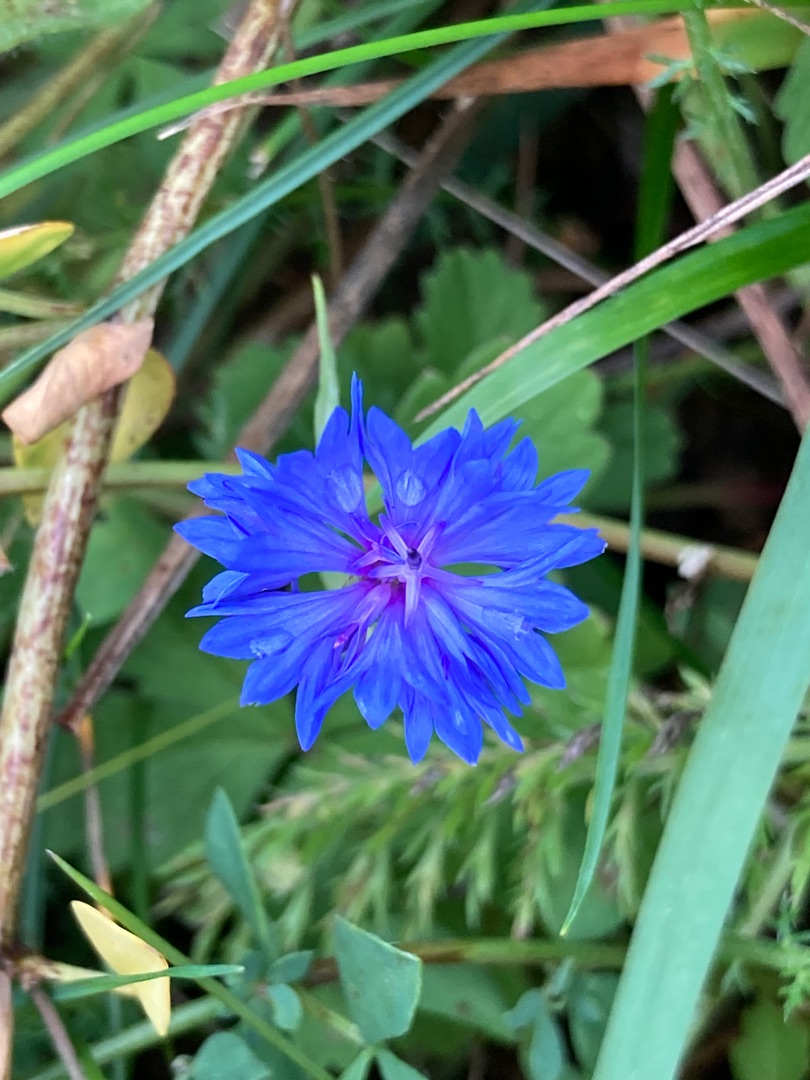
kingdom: Plantae
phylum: Tracheophyta
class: Magnoliopsida
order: Asterales
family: Asteraceae
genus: Centaurea
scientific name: Centaurea cyanus
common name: Kornblomst
